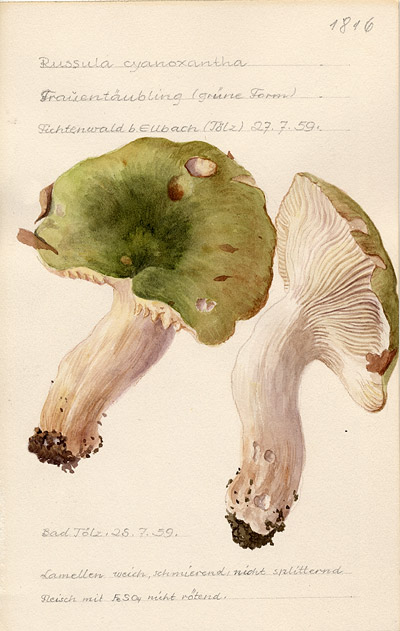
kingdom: Fungi
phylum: Basidiomycota
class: Agaricomycetes
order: Russulales
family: Russulaceae
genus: Russula
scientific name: Russula cyanoxantha
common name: Charcoal burner
